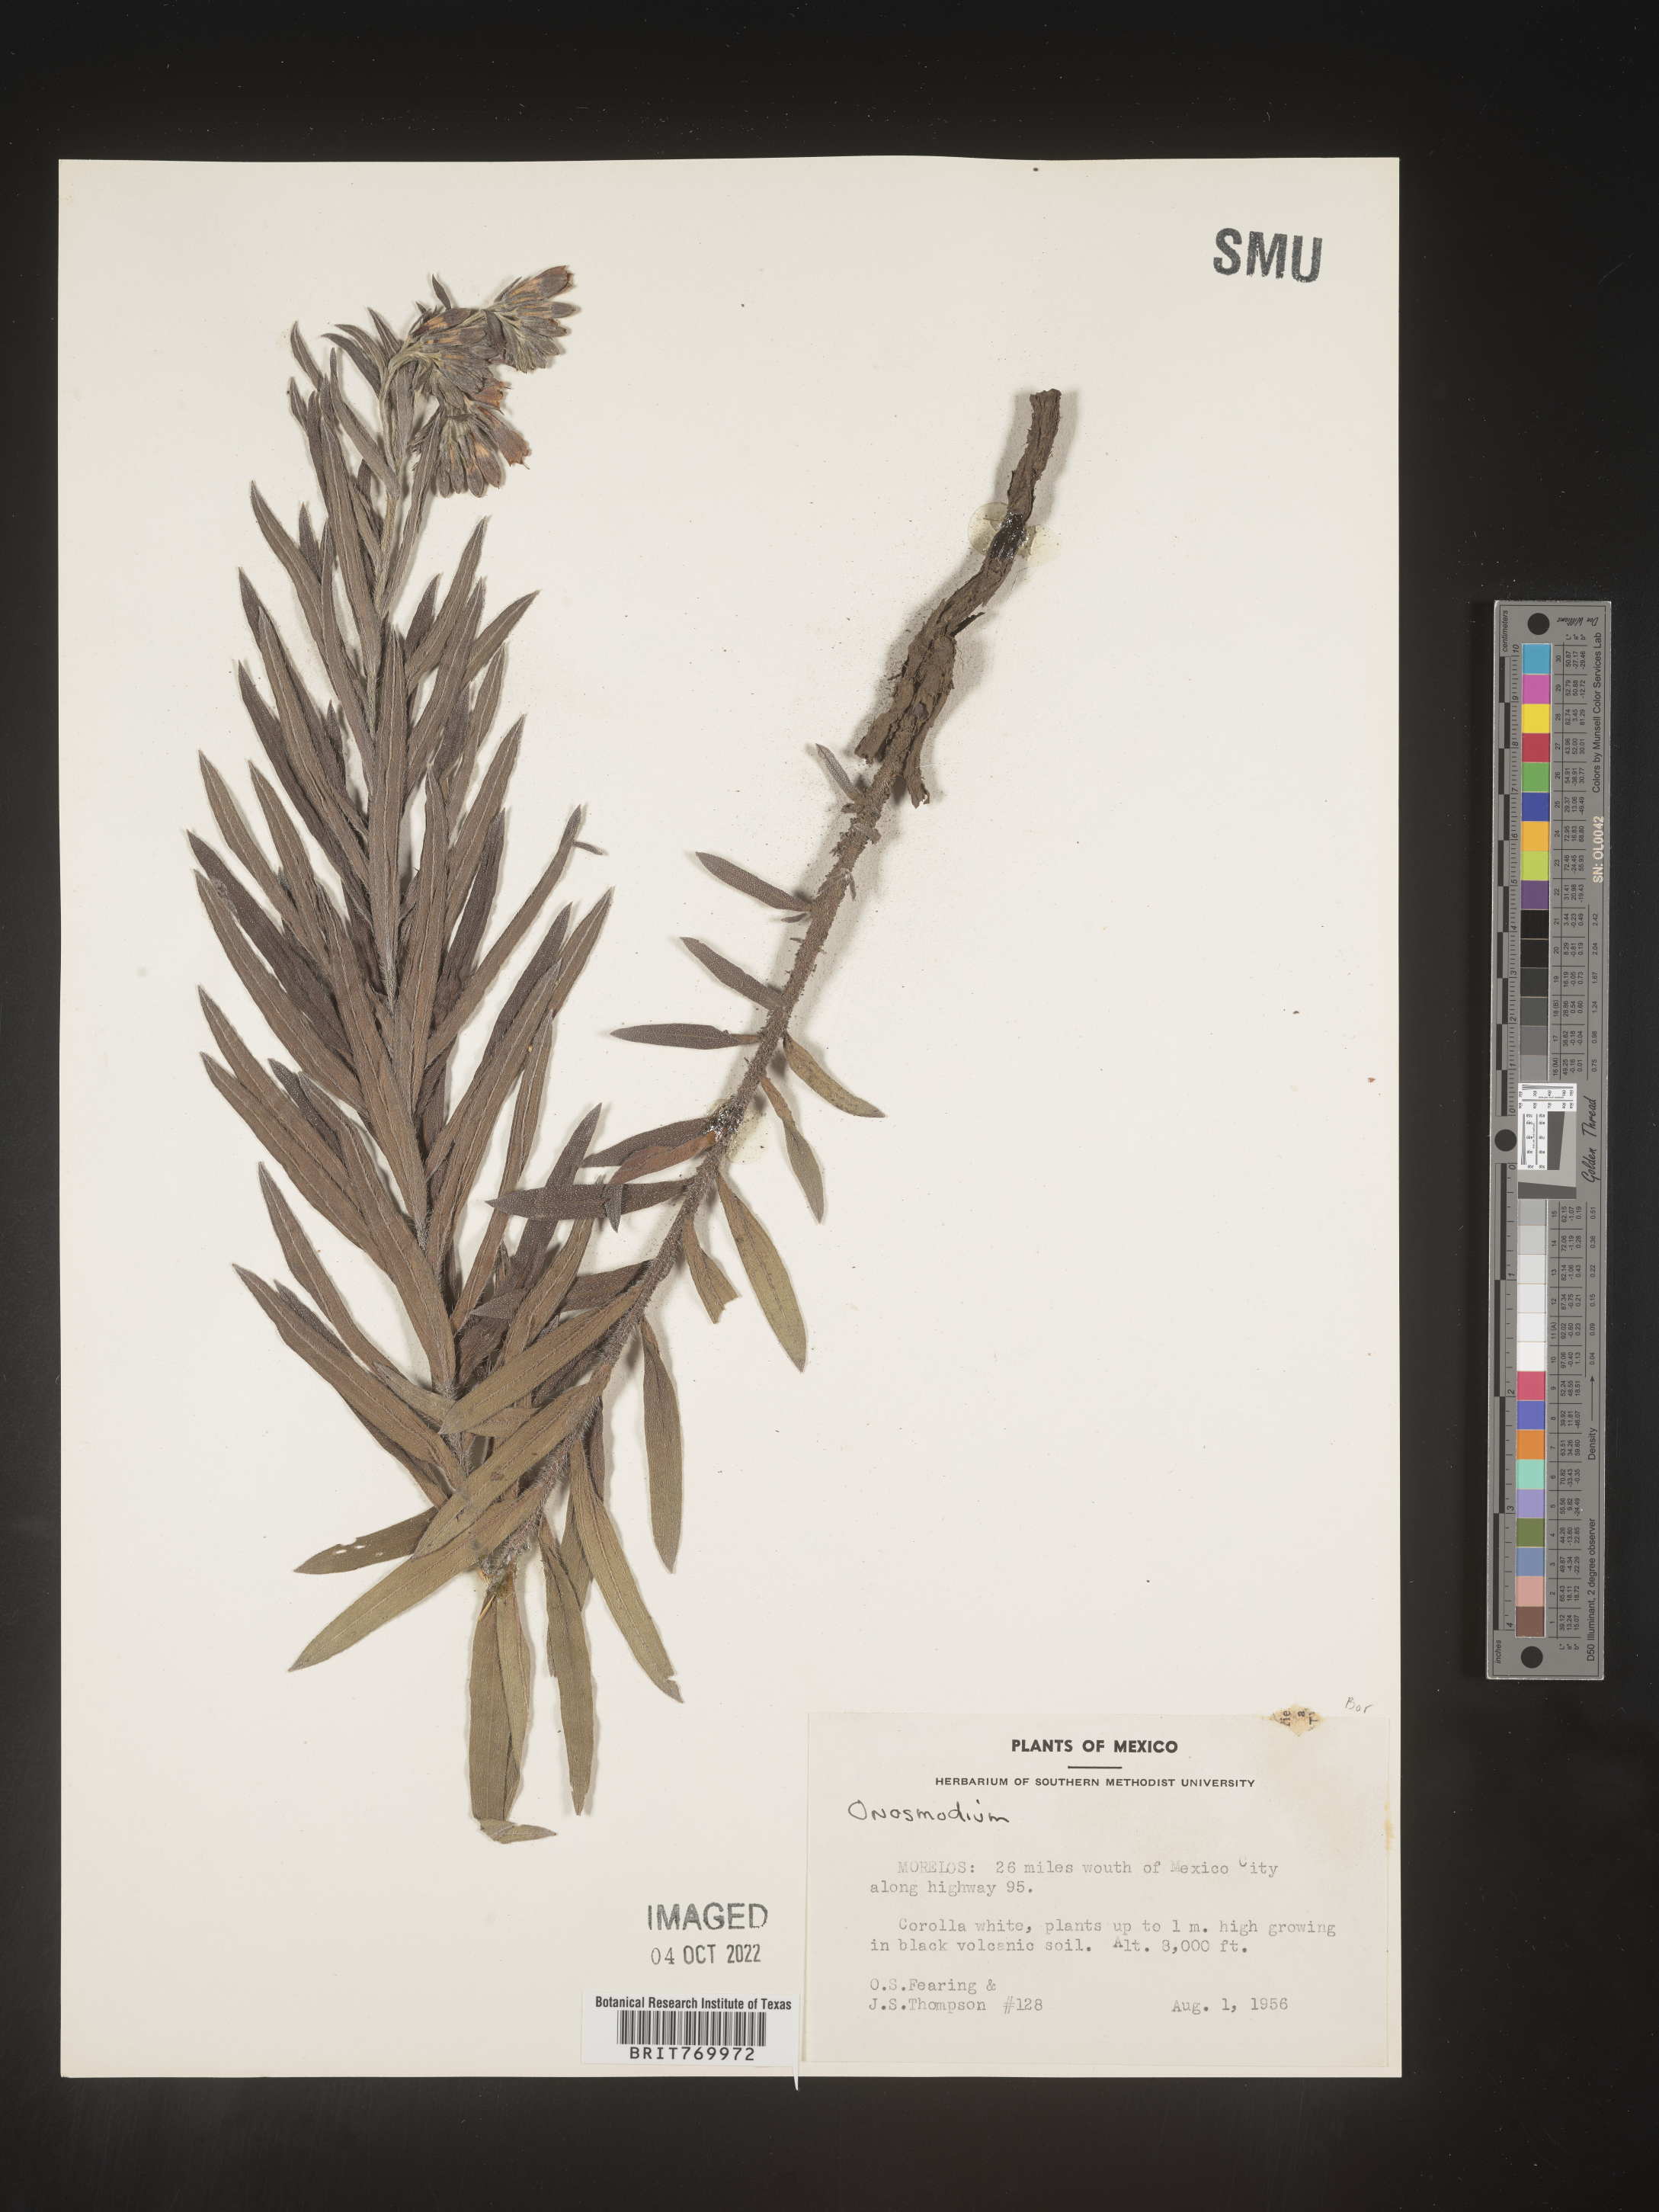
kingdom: Plantae
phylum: Tracheophyta
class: Magnoliopsida
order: Boraginales
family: Boraginaceae
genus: Lithospermum
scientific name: Lithospermum
